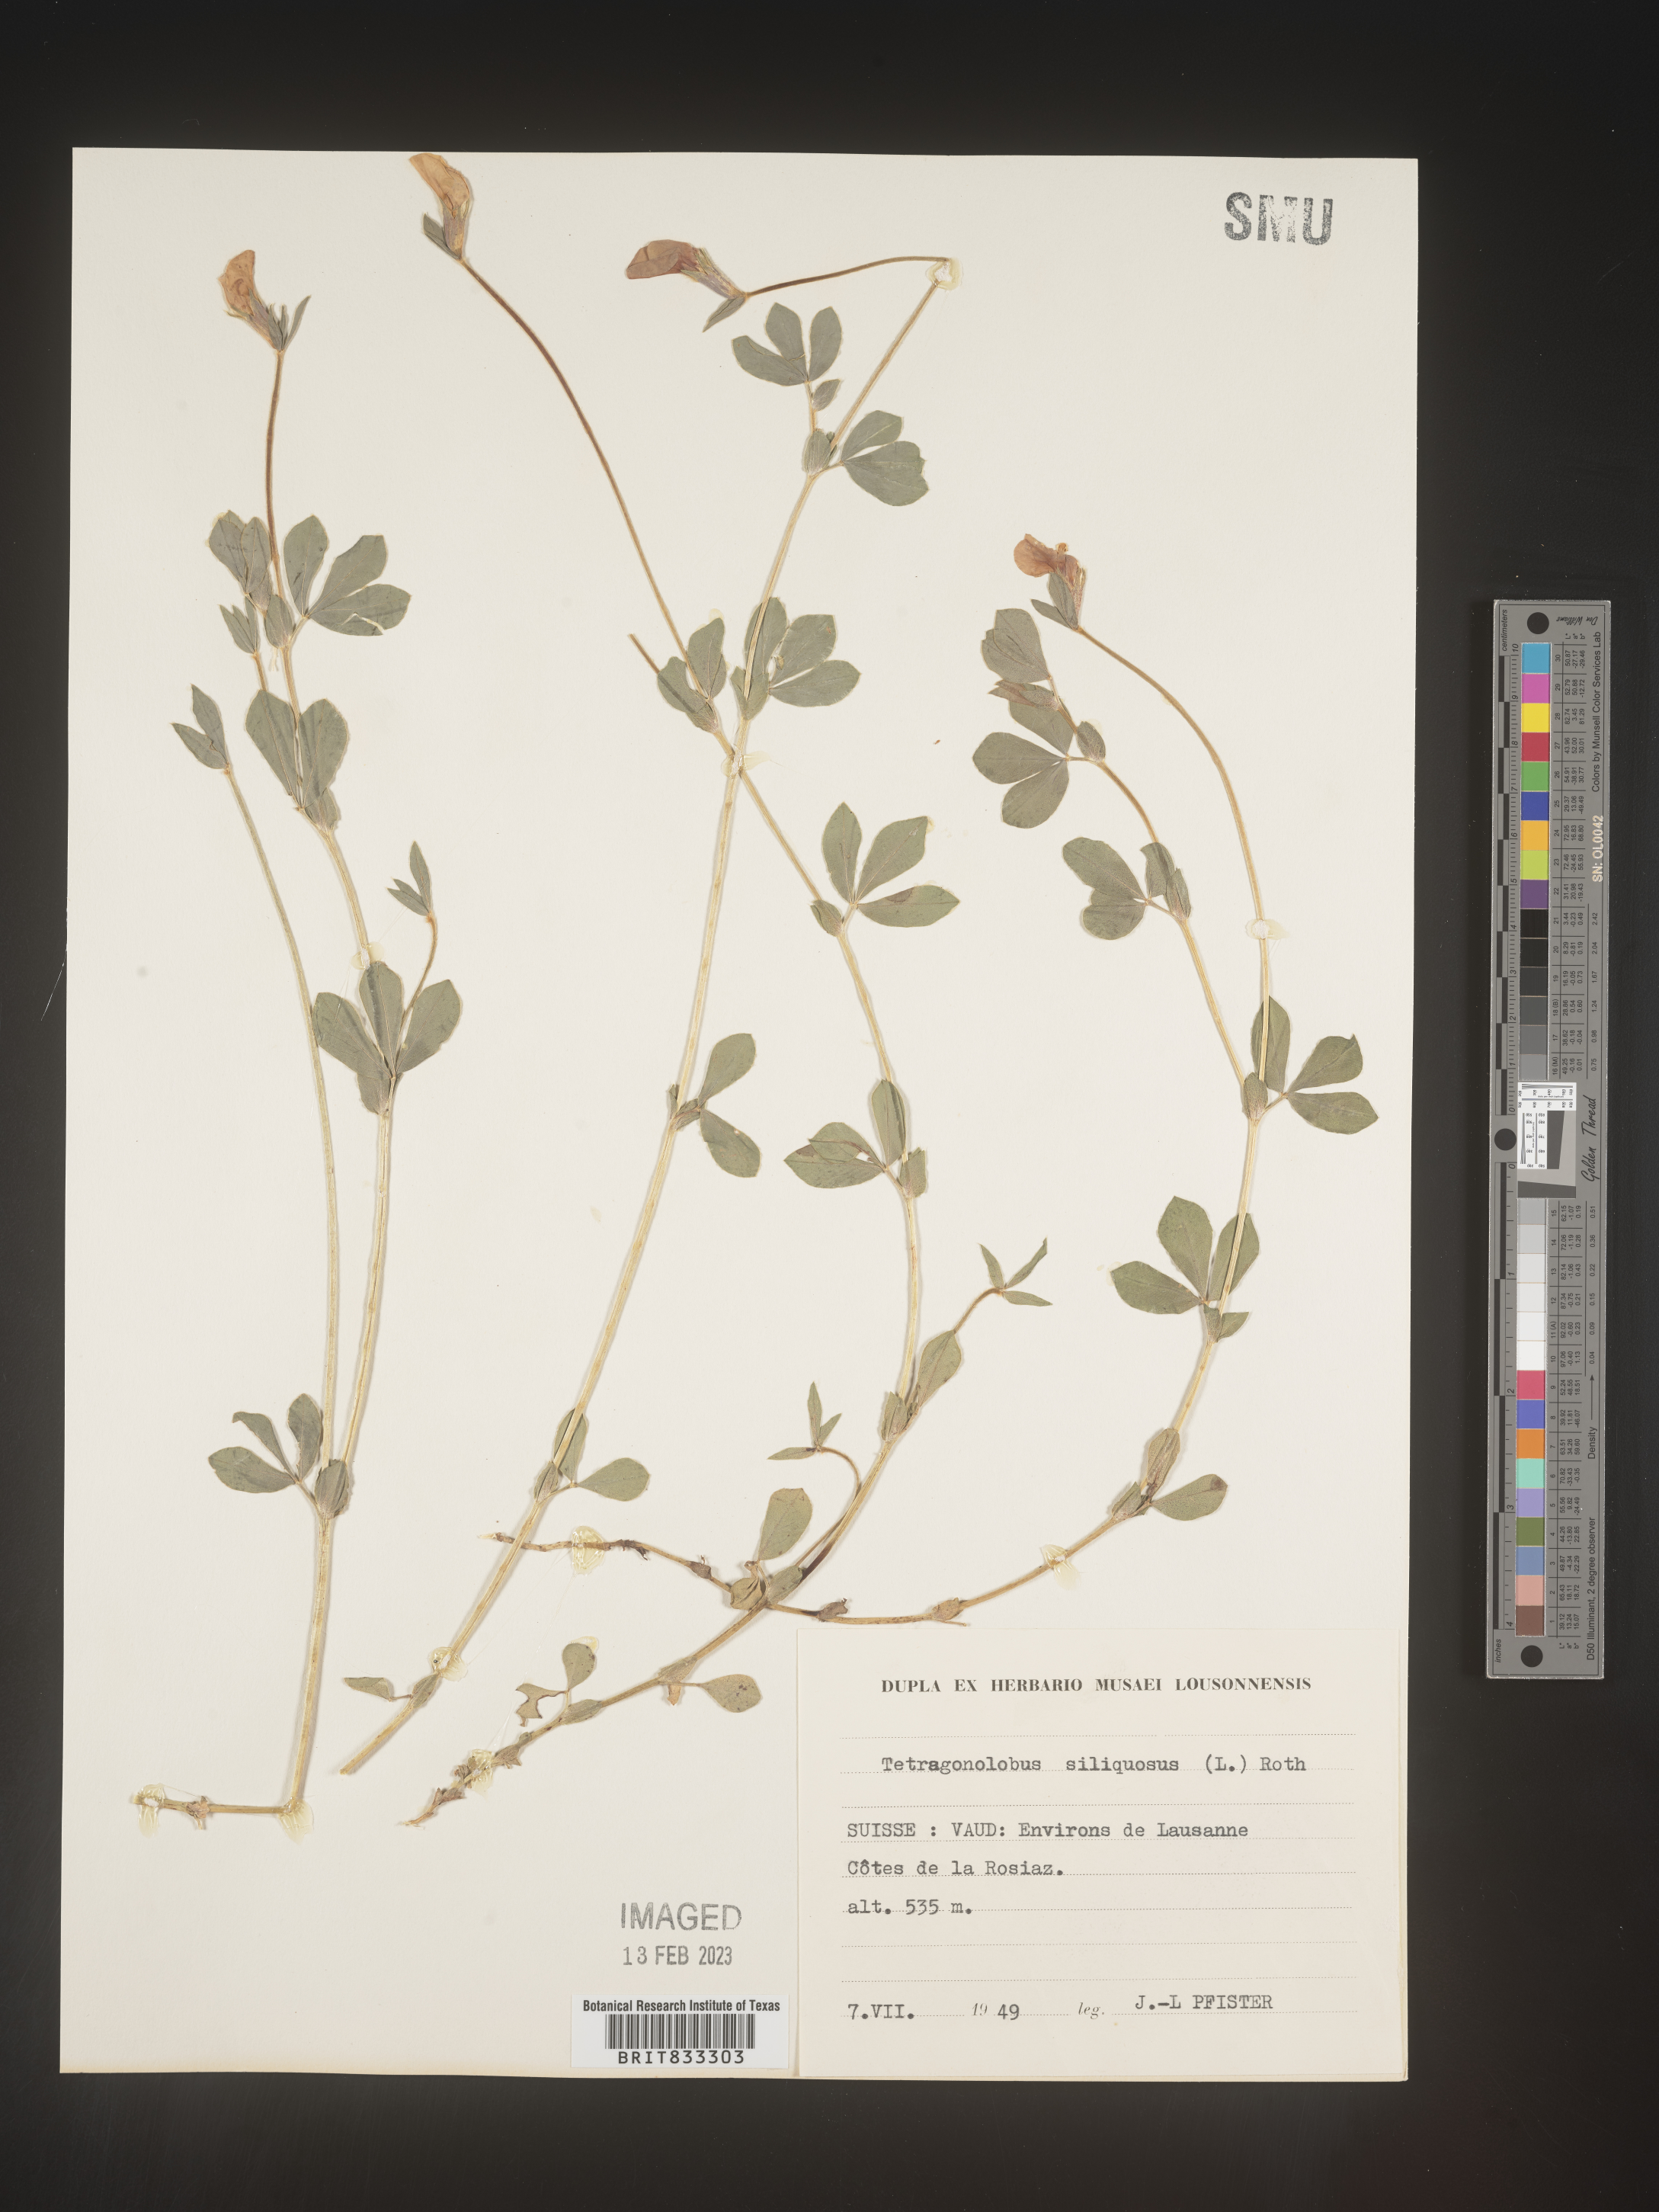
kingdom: Plantae
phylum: Tracheophyta
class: Magnoliopsida
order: Fabales
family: Fabaceae
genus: Lotus
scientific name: Lotus
